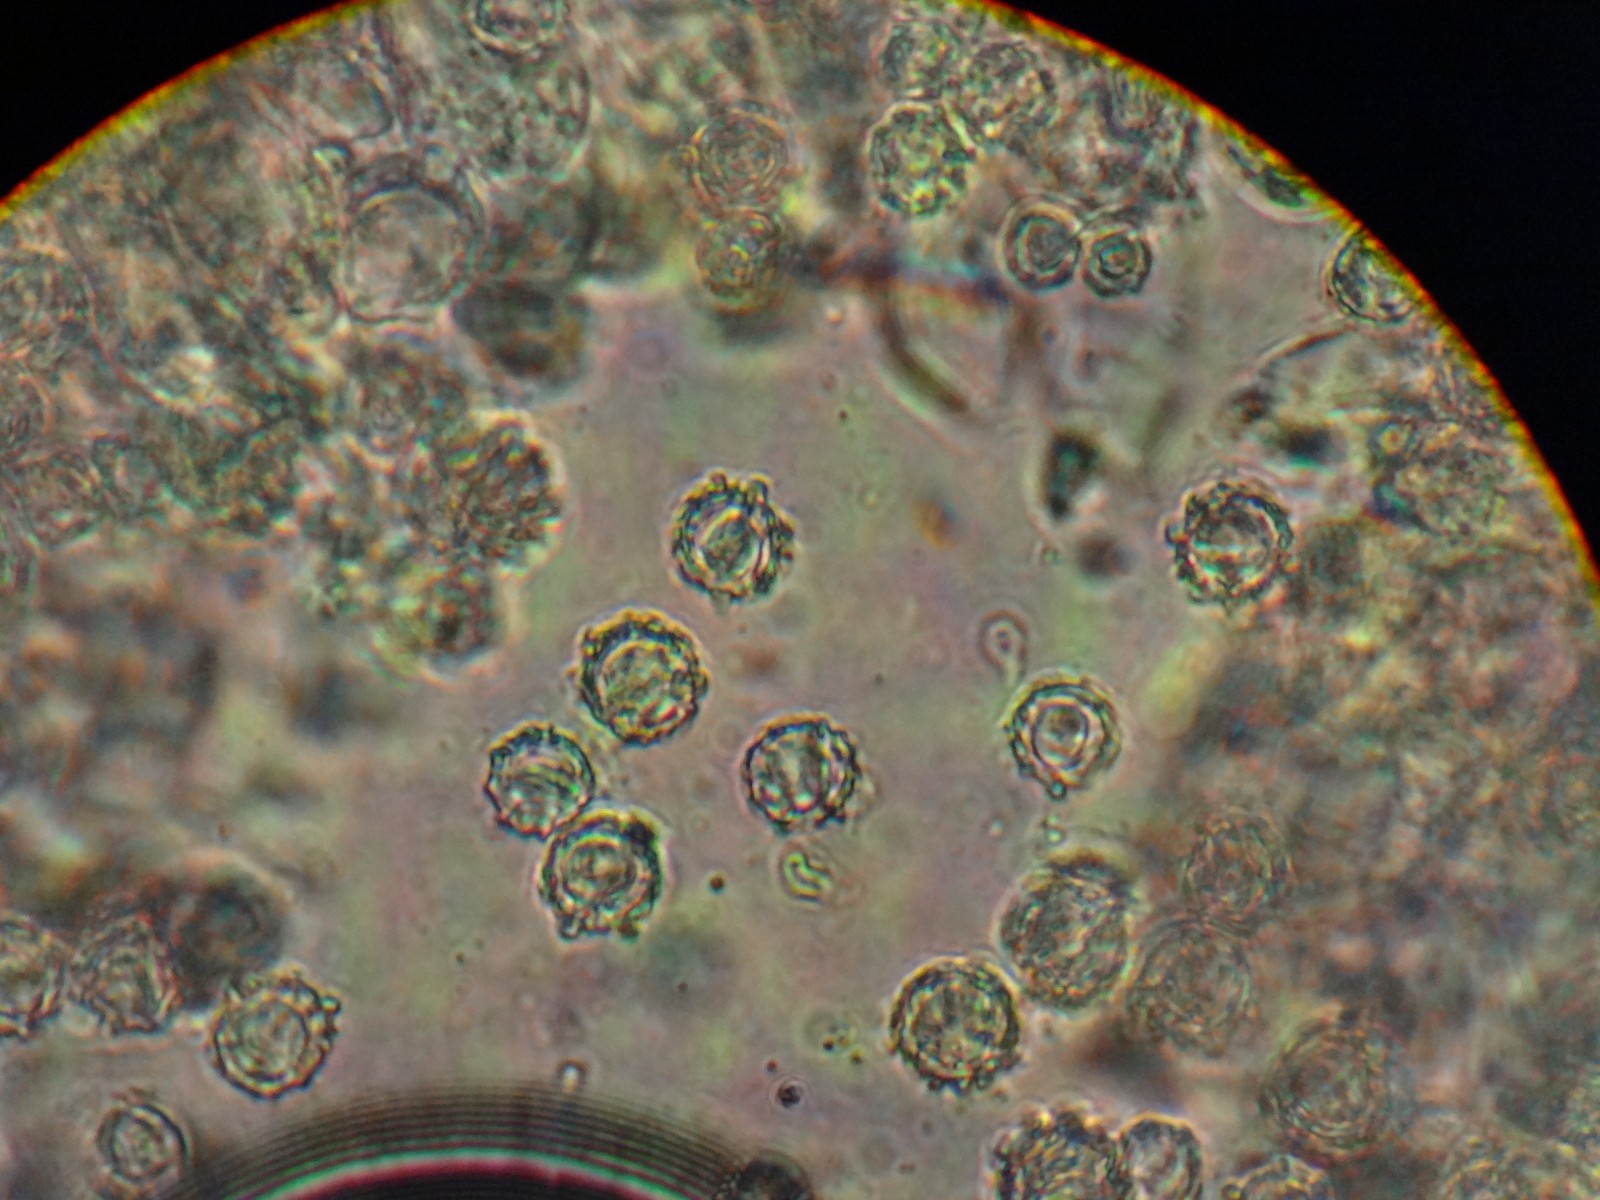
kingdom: Fungi
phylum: Basidiomycota
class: Agaricomycetes
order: Russulales
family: Russulaceae
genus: Lactarius
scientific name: Lactarius fuliginosus
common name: sodbrun mælkehat
